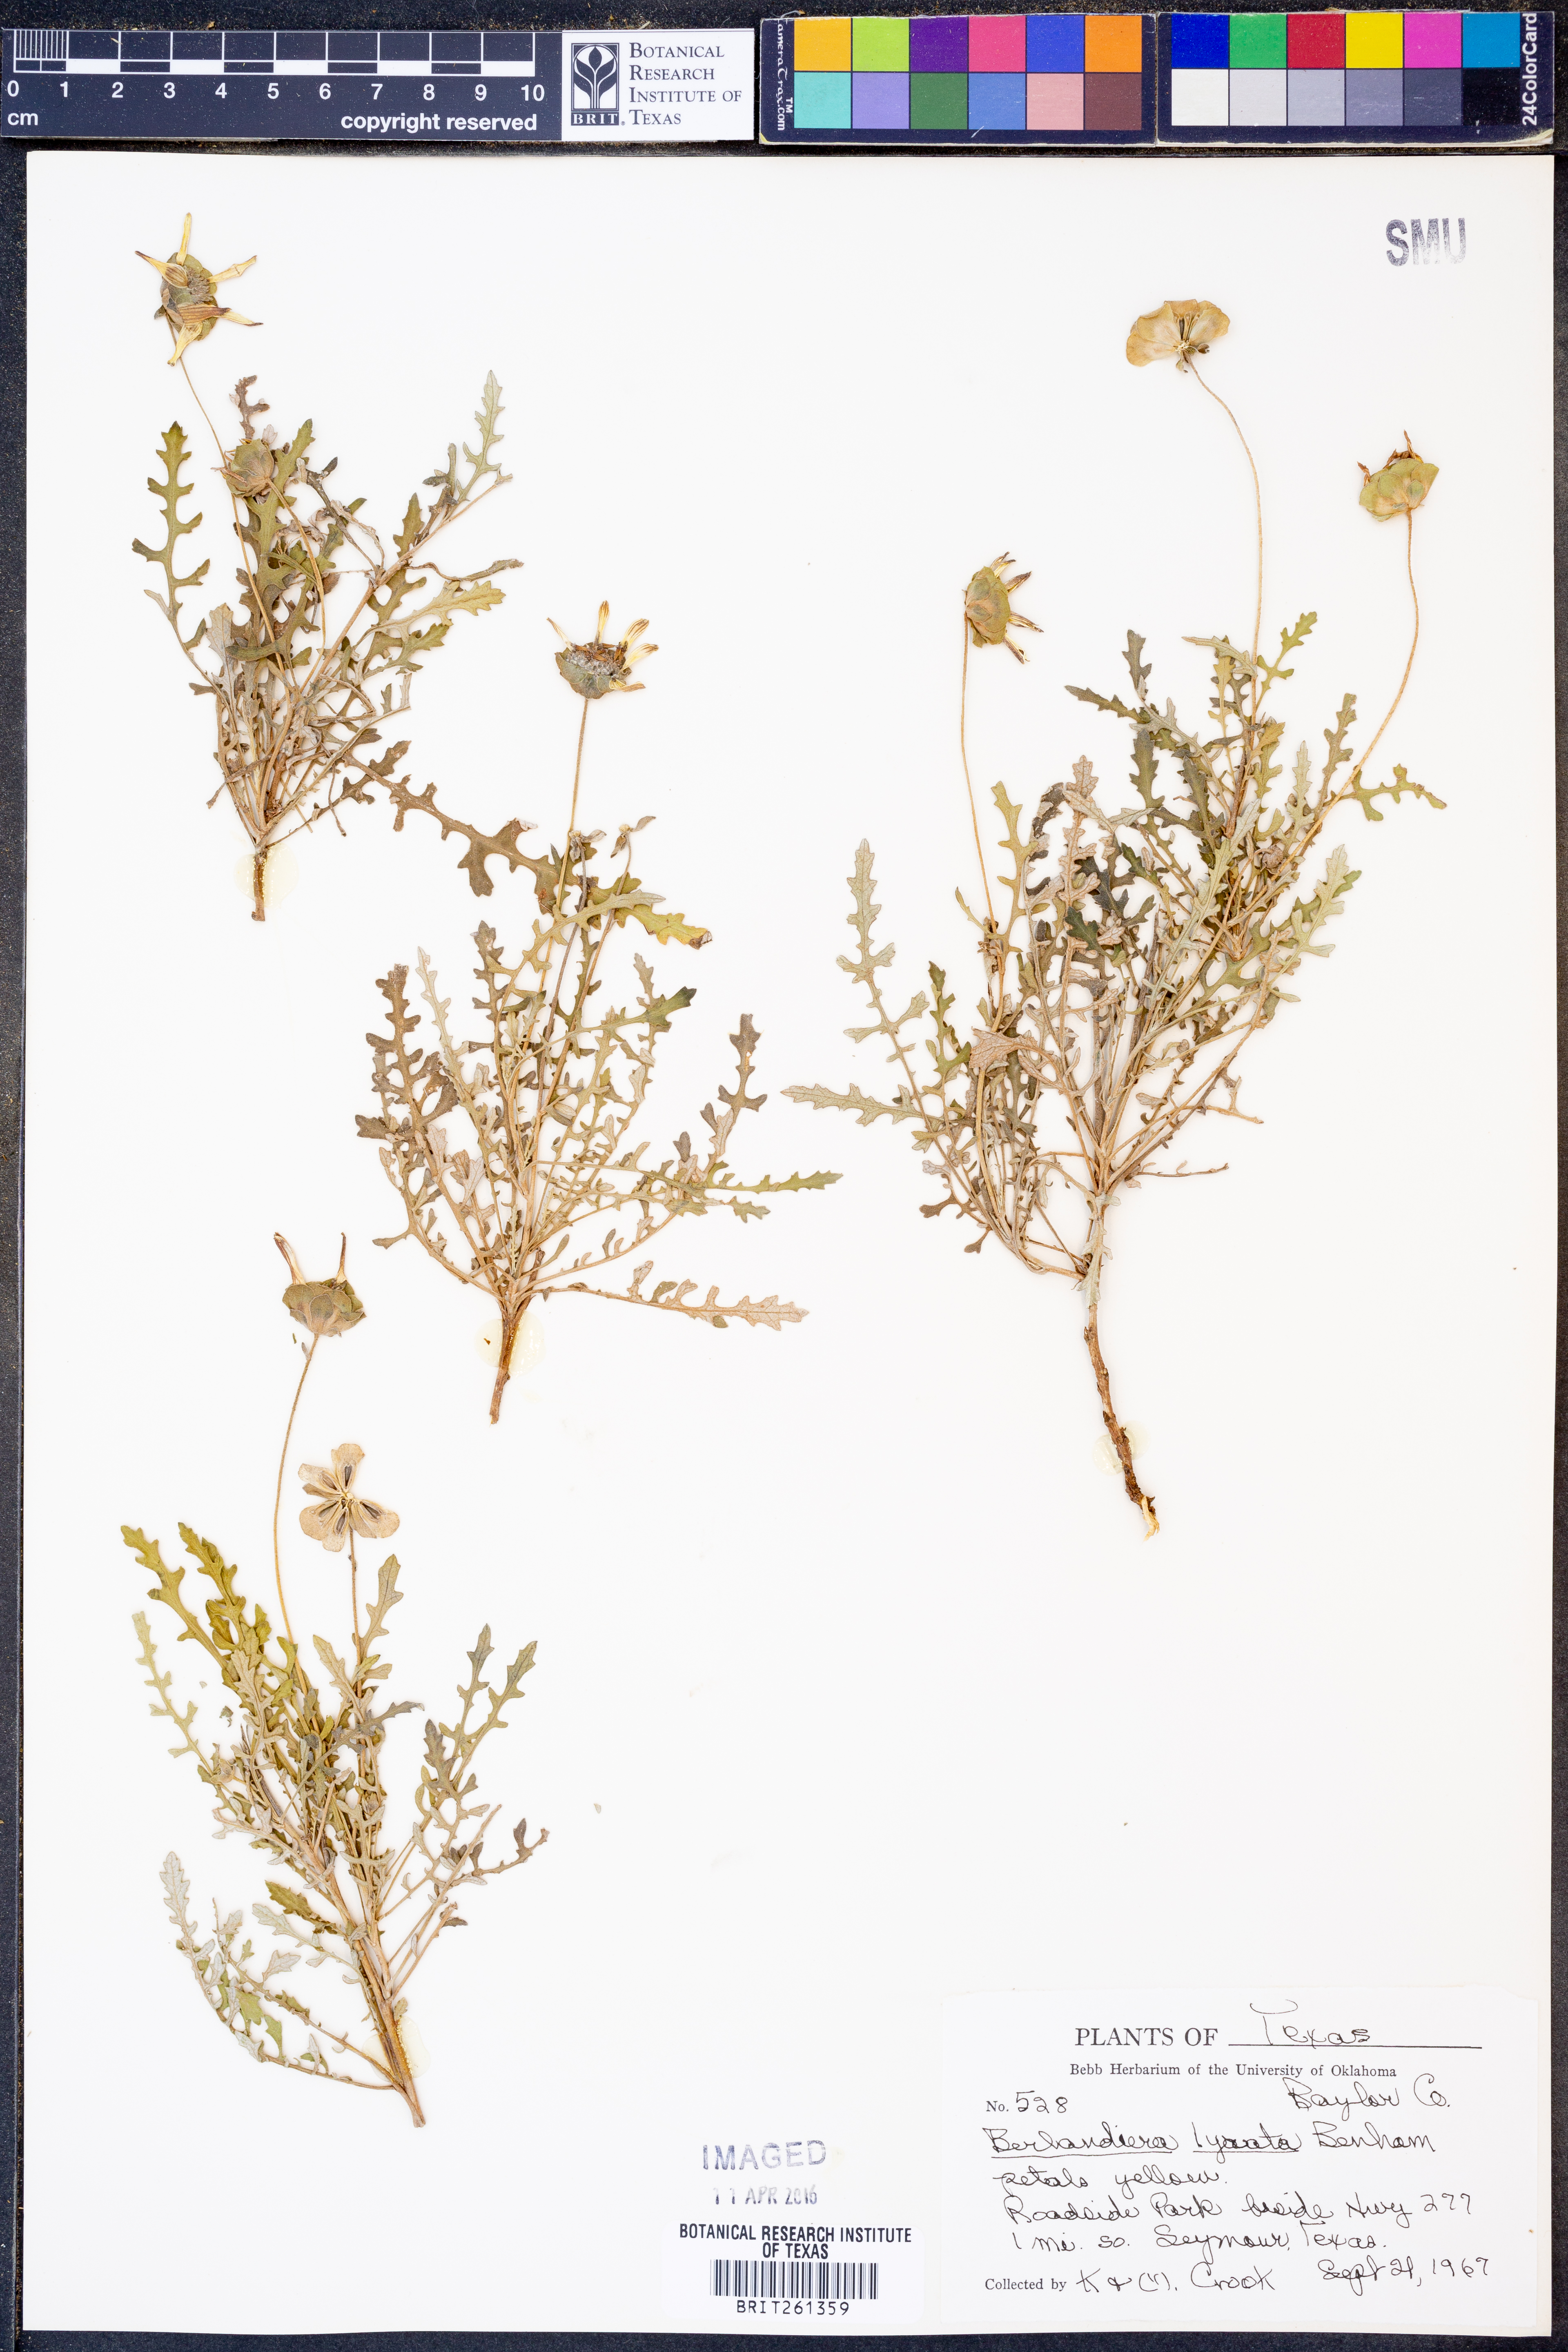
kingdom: Plantae
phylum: Tracheophyta
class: Magnoliopsida
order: Asterales
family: Asteraceae
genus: Berlandiera
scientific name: Berlandiera lyrata
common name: Chocolate-flower
